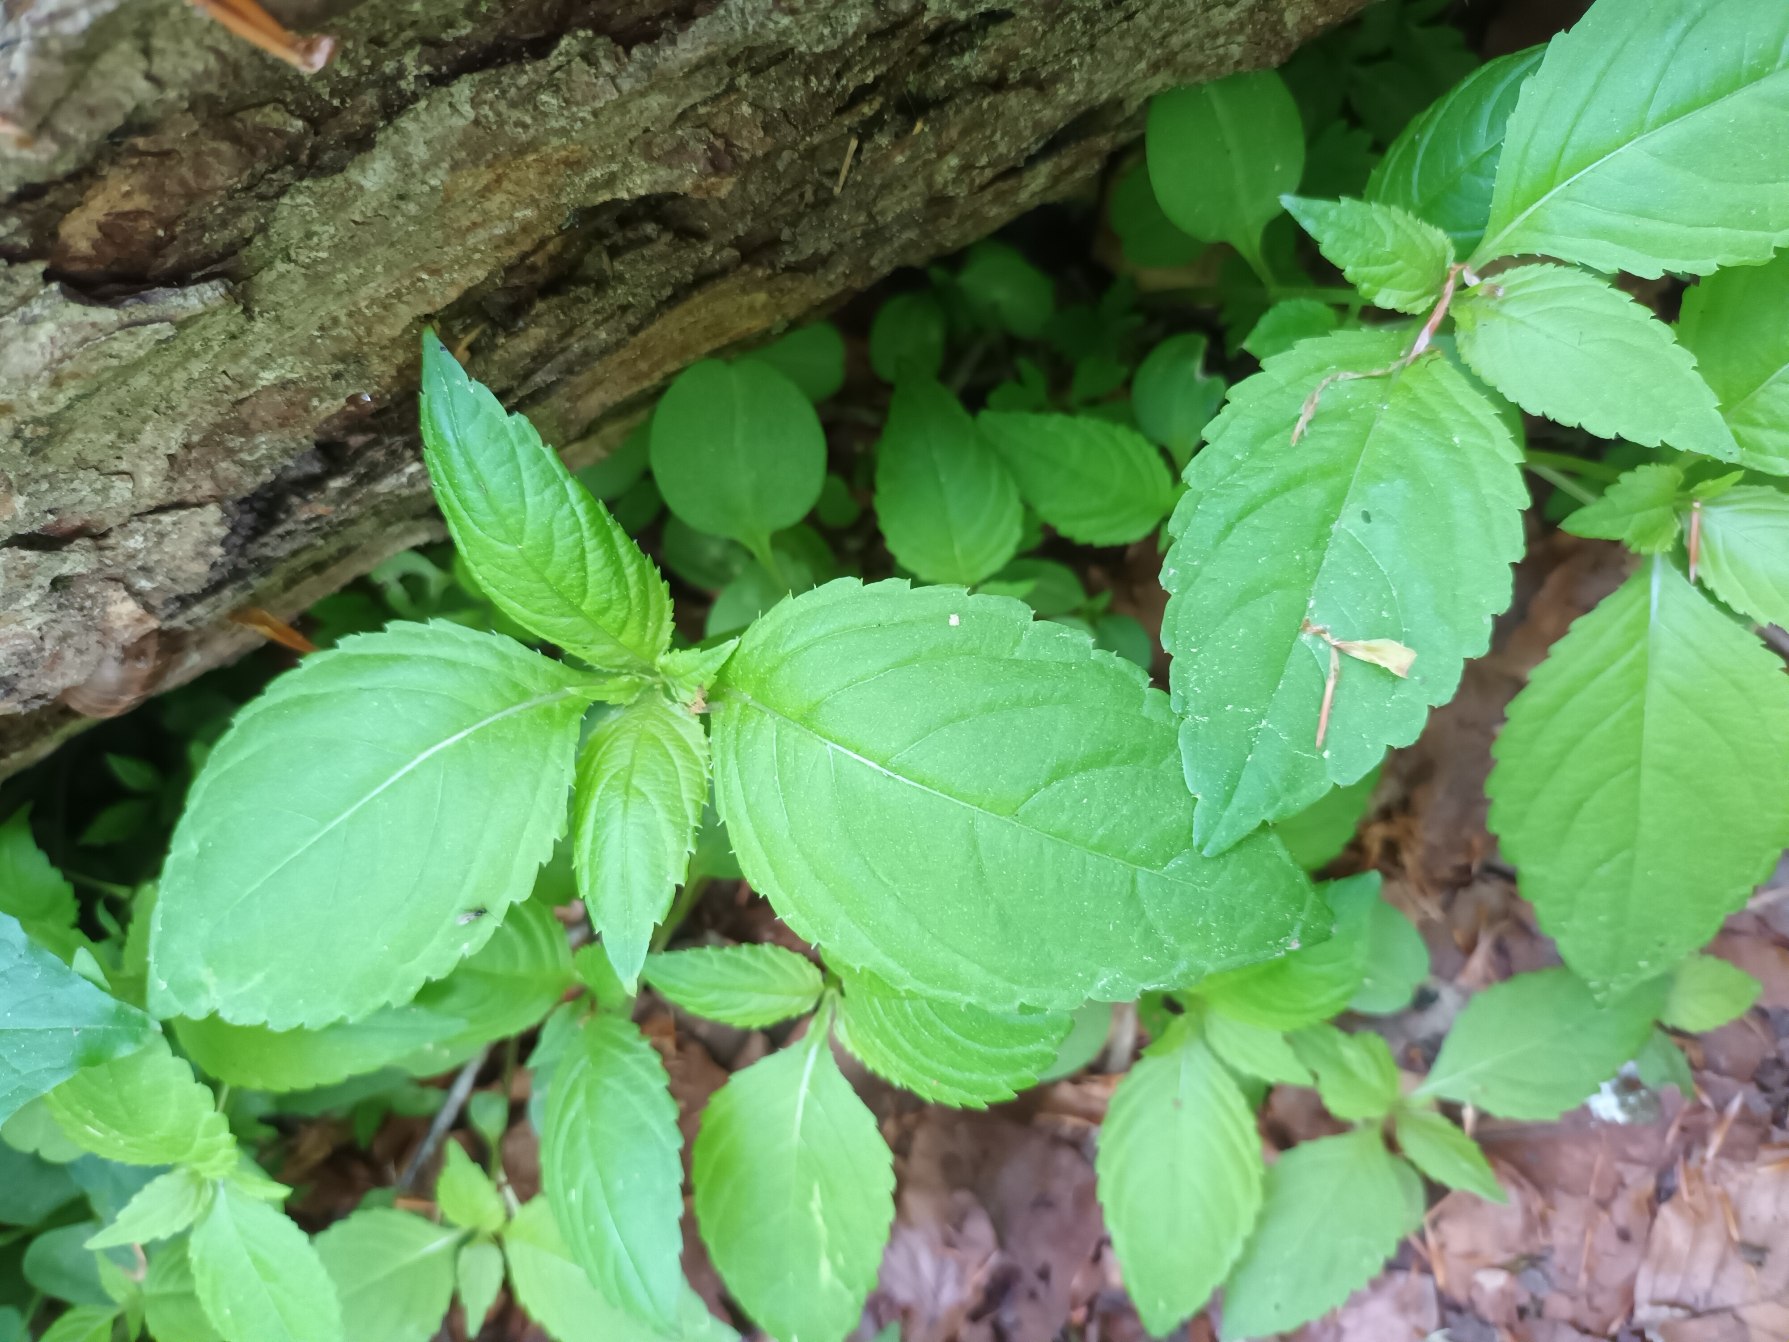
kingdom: Plantae
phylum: Tracheophyta
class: Magnoliopsida
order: Ericales
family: Balsaminaceae
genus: Impatiens
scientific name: Impatiens parviflora
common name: Småblomstret balsamin
